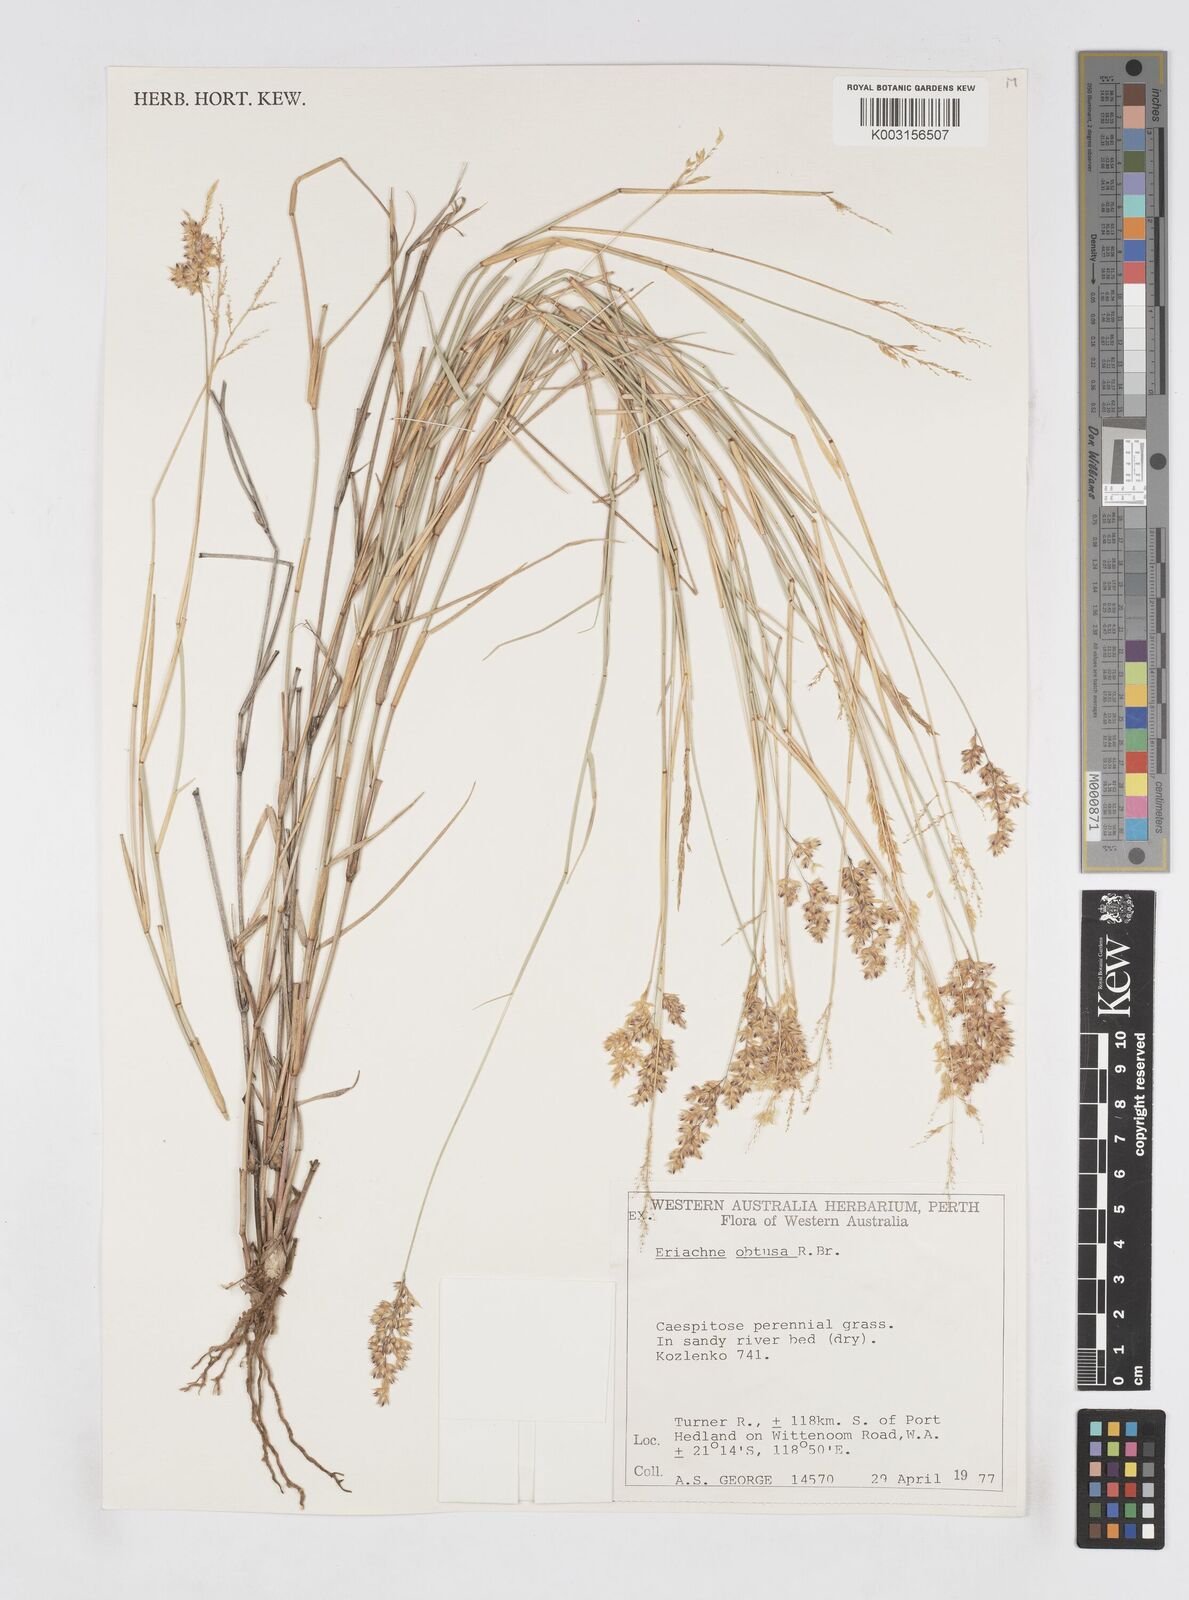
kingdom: Plantae
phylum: Tracheophyta
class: Liliopsida
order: Poales
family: Poaceae
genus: Eriachne
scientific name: Eriachne obtusa
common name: Northern wanderrie grass
